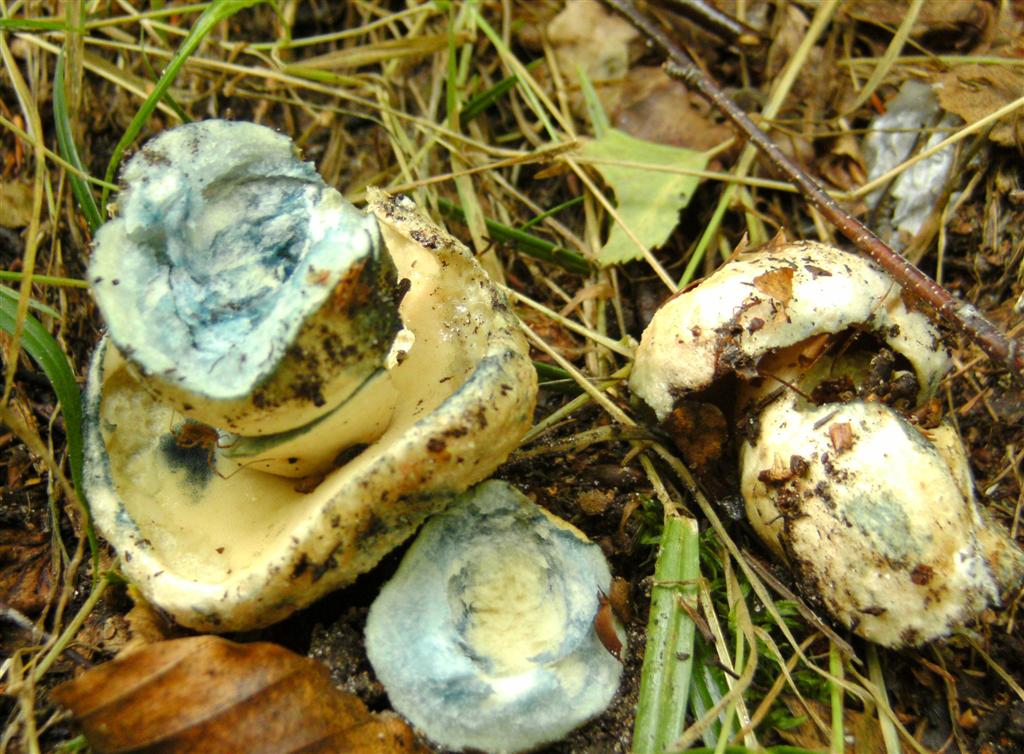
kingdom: Fungi
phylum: Basidiomycota
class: Agaricomycetes
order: Boletales
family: Gyroporaceae
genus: Gyroporus
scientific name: Gyroporus cyanescens
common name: blånende kammerrørhat
